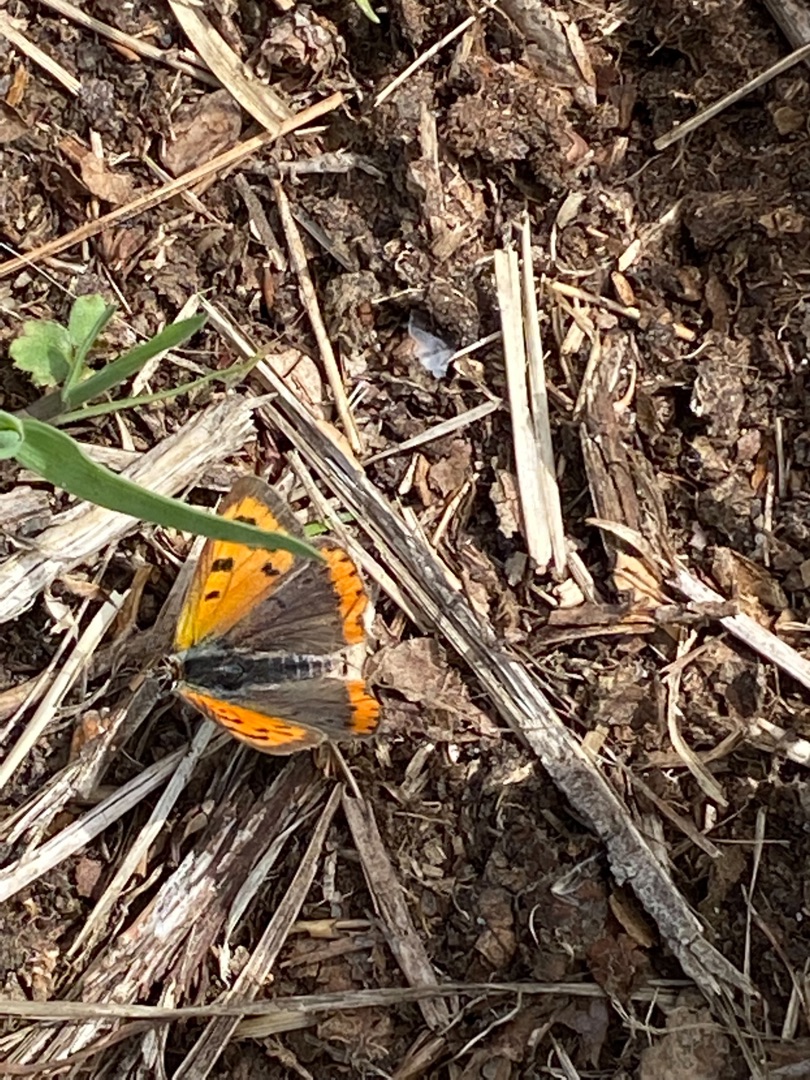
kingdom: Animalia
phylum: Arthropoda
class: Insecta
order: Lepidoptera
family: Lycaenidae
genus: Lycaena
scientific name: Lycaena phlaeas
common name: Lille ildfugl
